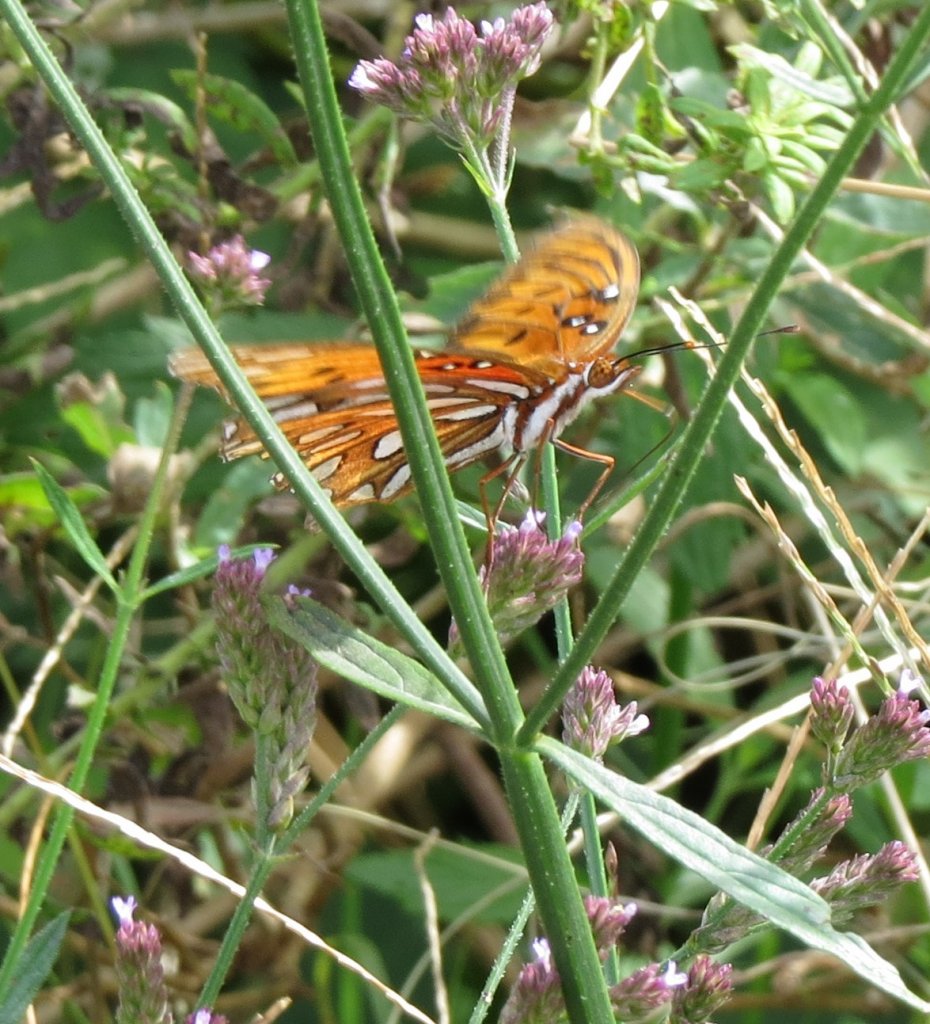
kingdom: Animalia
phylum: Arthropoda
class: Insecta
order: Lepidoptera
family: Nymphalidae
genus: Dione
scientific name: Dione vanillae
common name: Gulf Fritillary
